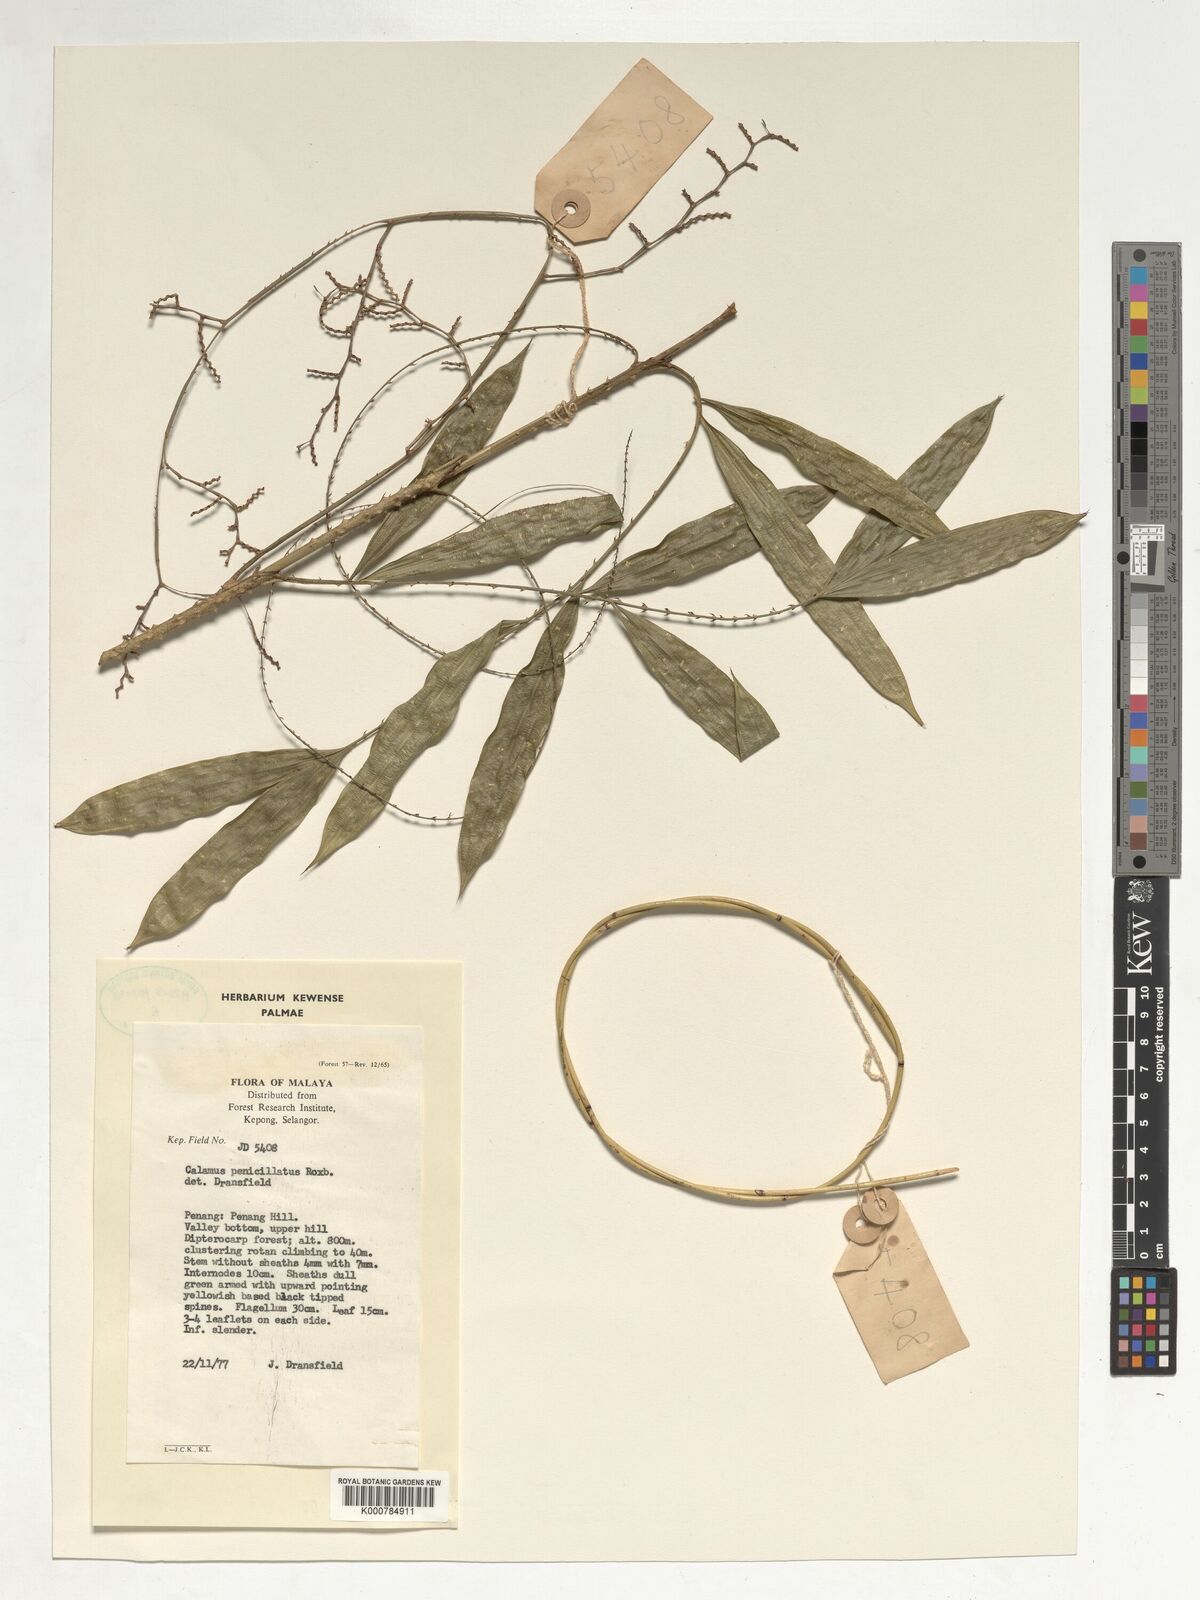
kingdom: Plantae
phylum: Tracheophyta
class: Liliopsida
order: Arecales
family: Arecaceae
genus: Calamus
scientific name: Calamus penicillatus
